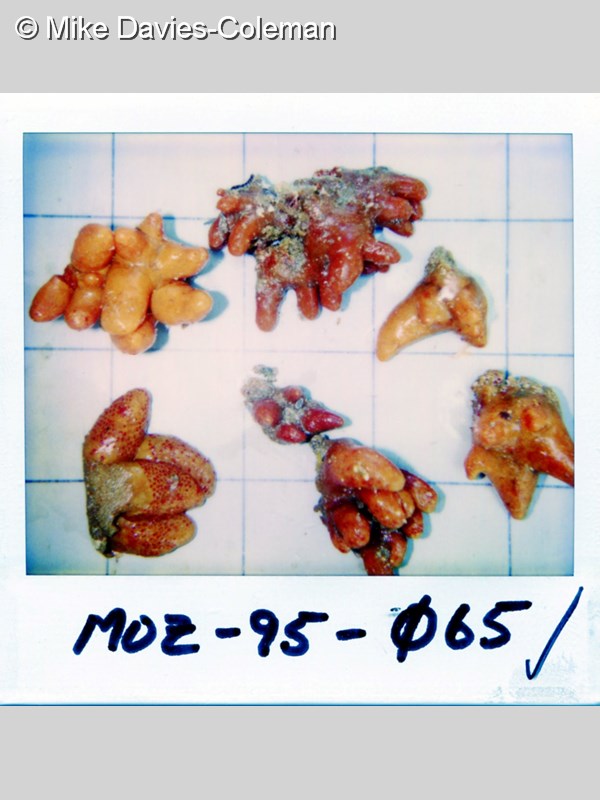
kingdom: Animalia
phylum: Chordata
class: Ascidiacea
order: Aplousobranchia
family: Pseudodistomidae
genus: Pseudodistoma
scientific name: Pseudodistoma africanum
